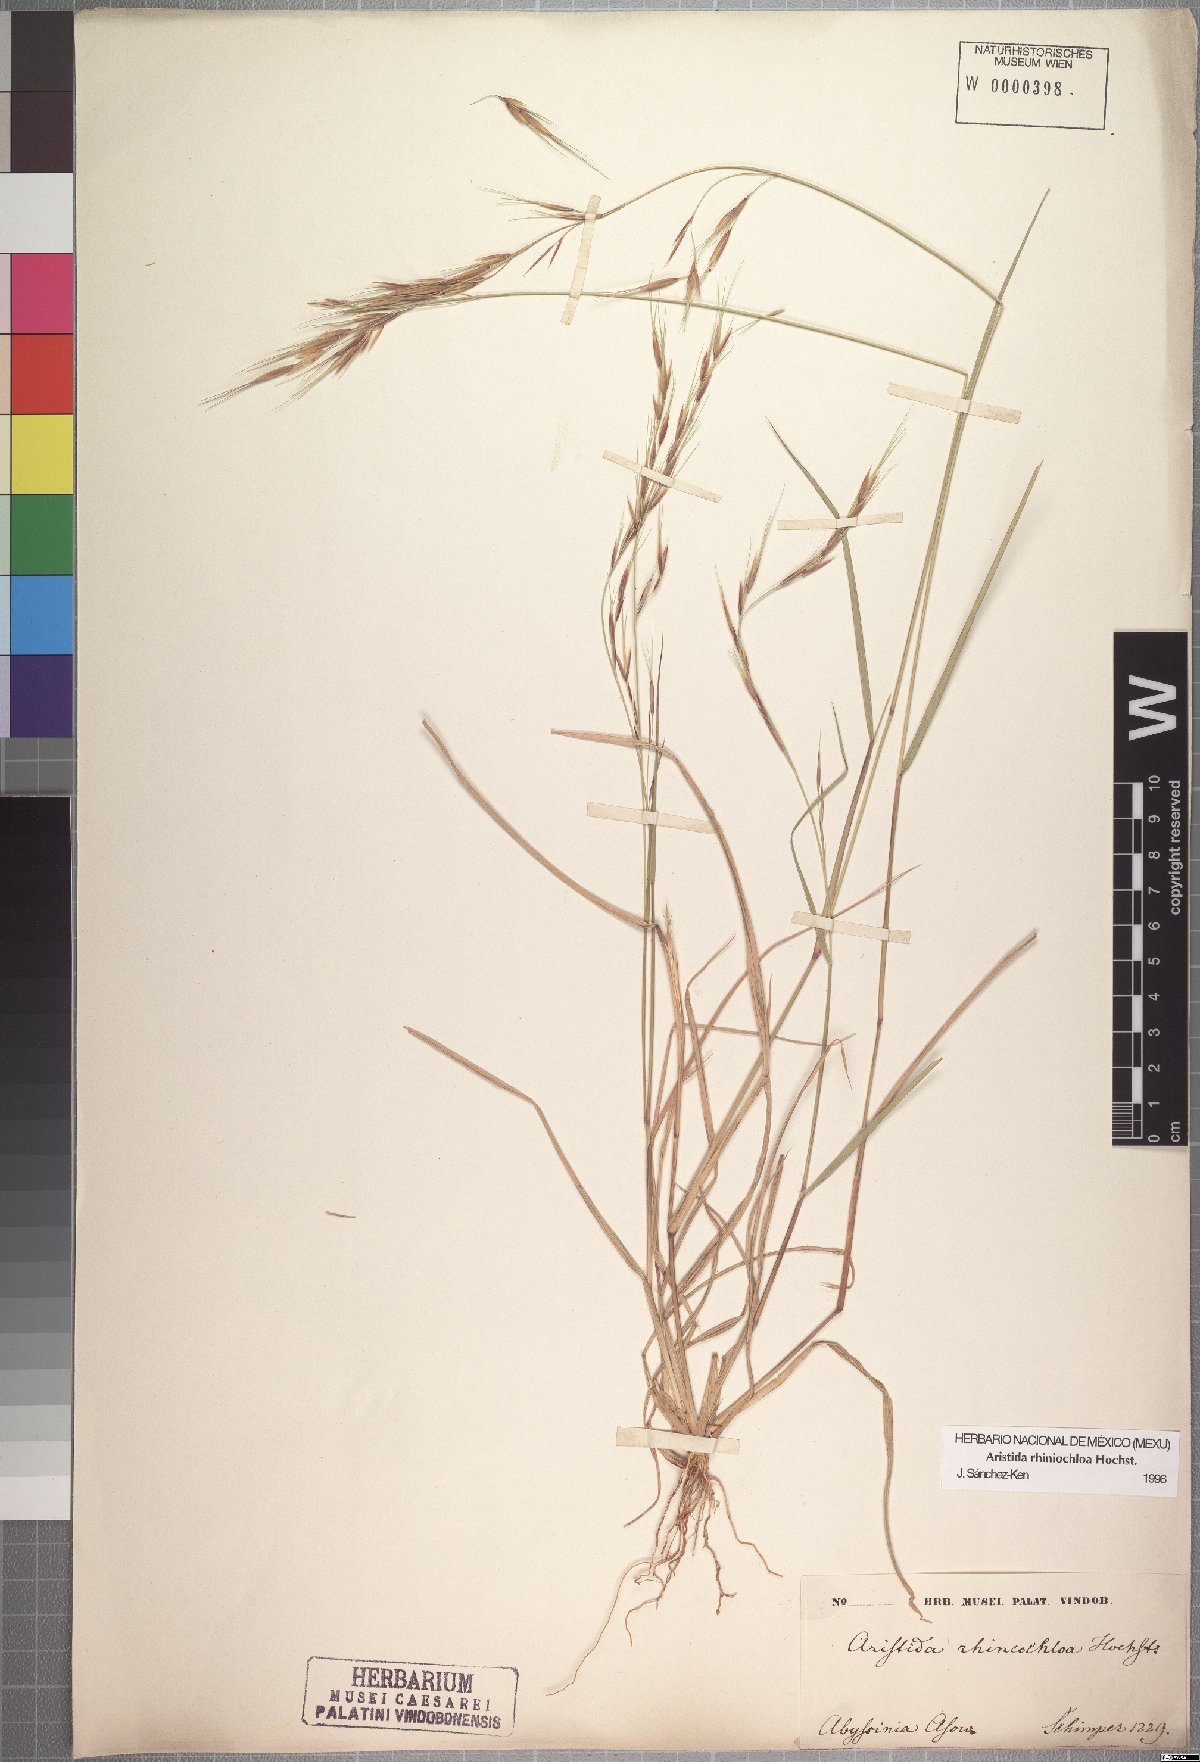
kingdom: Plantae
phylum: Tracheophyta
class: Liliopsida
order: Poales
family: Poaceae
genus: Aristida
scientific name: Aristida rhiniochloa
